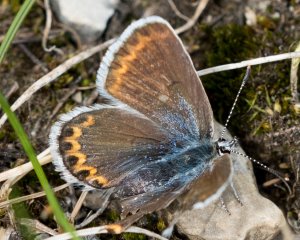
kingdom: Animalia
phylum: Arthropoda
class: Insecta
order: Lepidoptera
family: Lycaenidae
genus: Lycaeides
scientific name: Lycaeides idas
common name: Northern Blue
